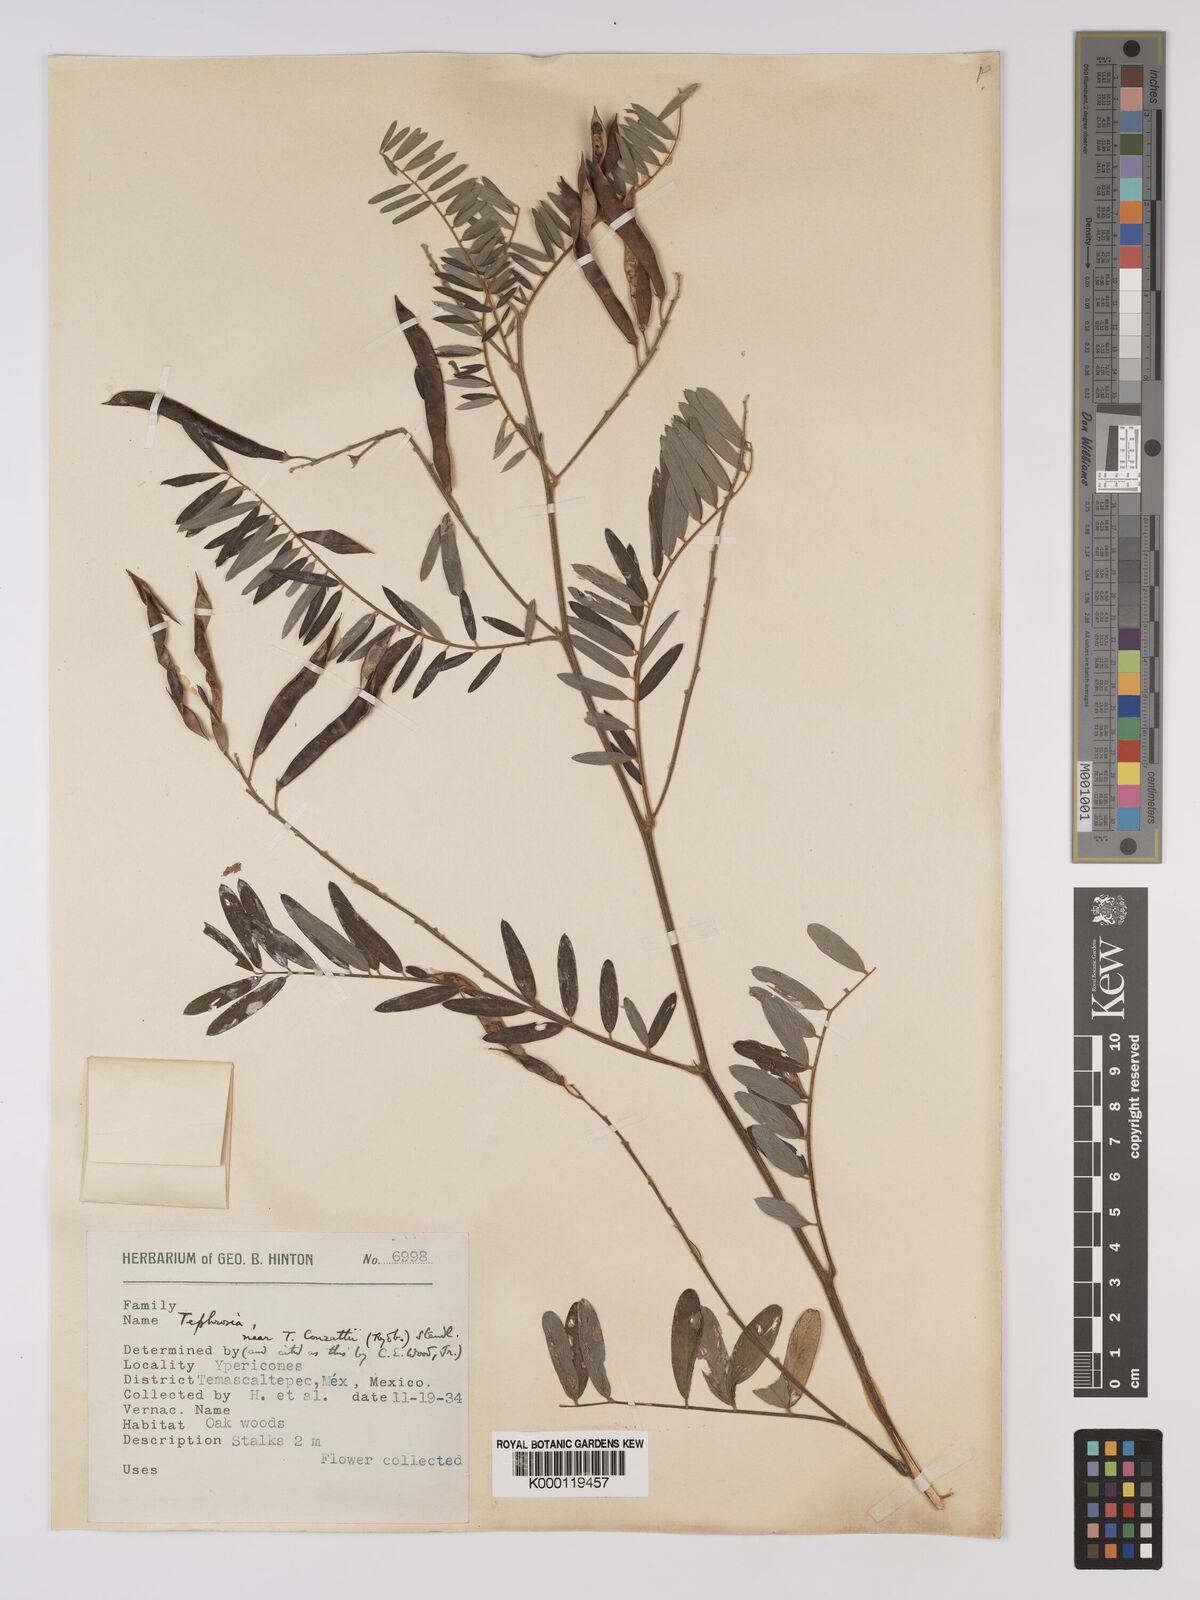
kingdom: Plantae
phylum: Tracheophyta
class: Magnoliopsida
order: Fabales
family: Fabaceae
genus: Tephrosia
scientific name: Tephrosia conzattii
